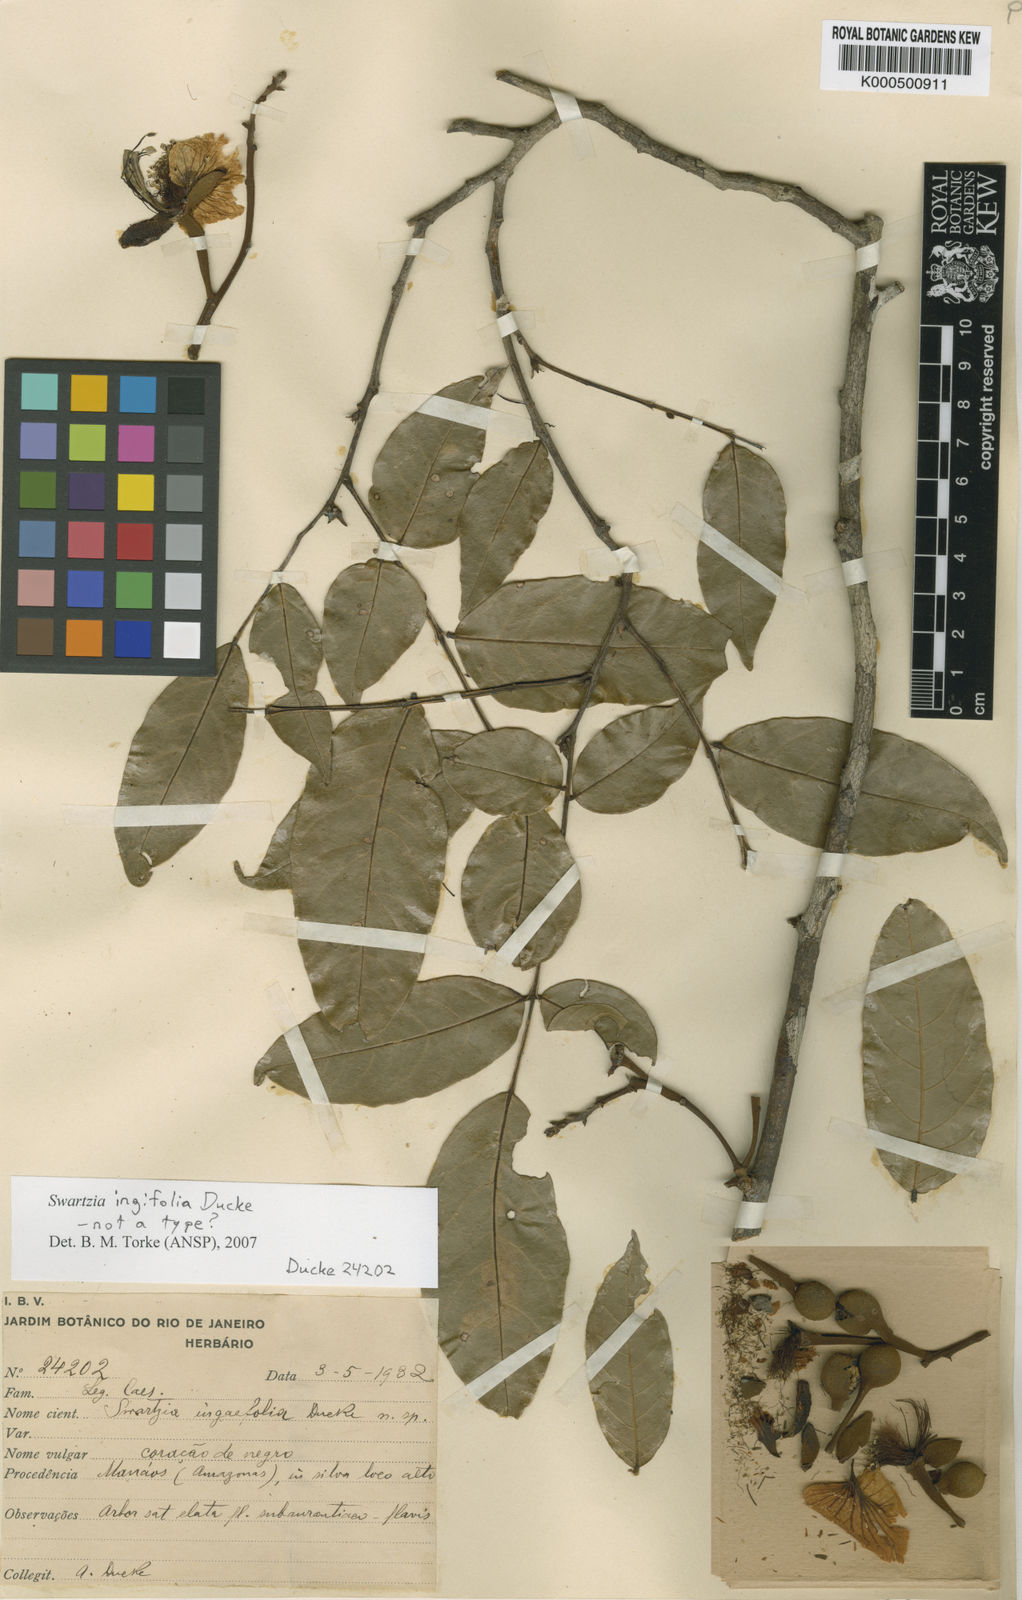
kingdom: Plantae
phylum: Tracheophyta
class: Magnoliopsida
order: Fabales
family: Fabaceae
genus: Swartzia
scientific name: Swartzia ingifolia
